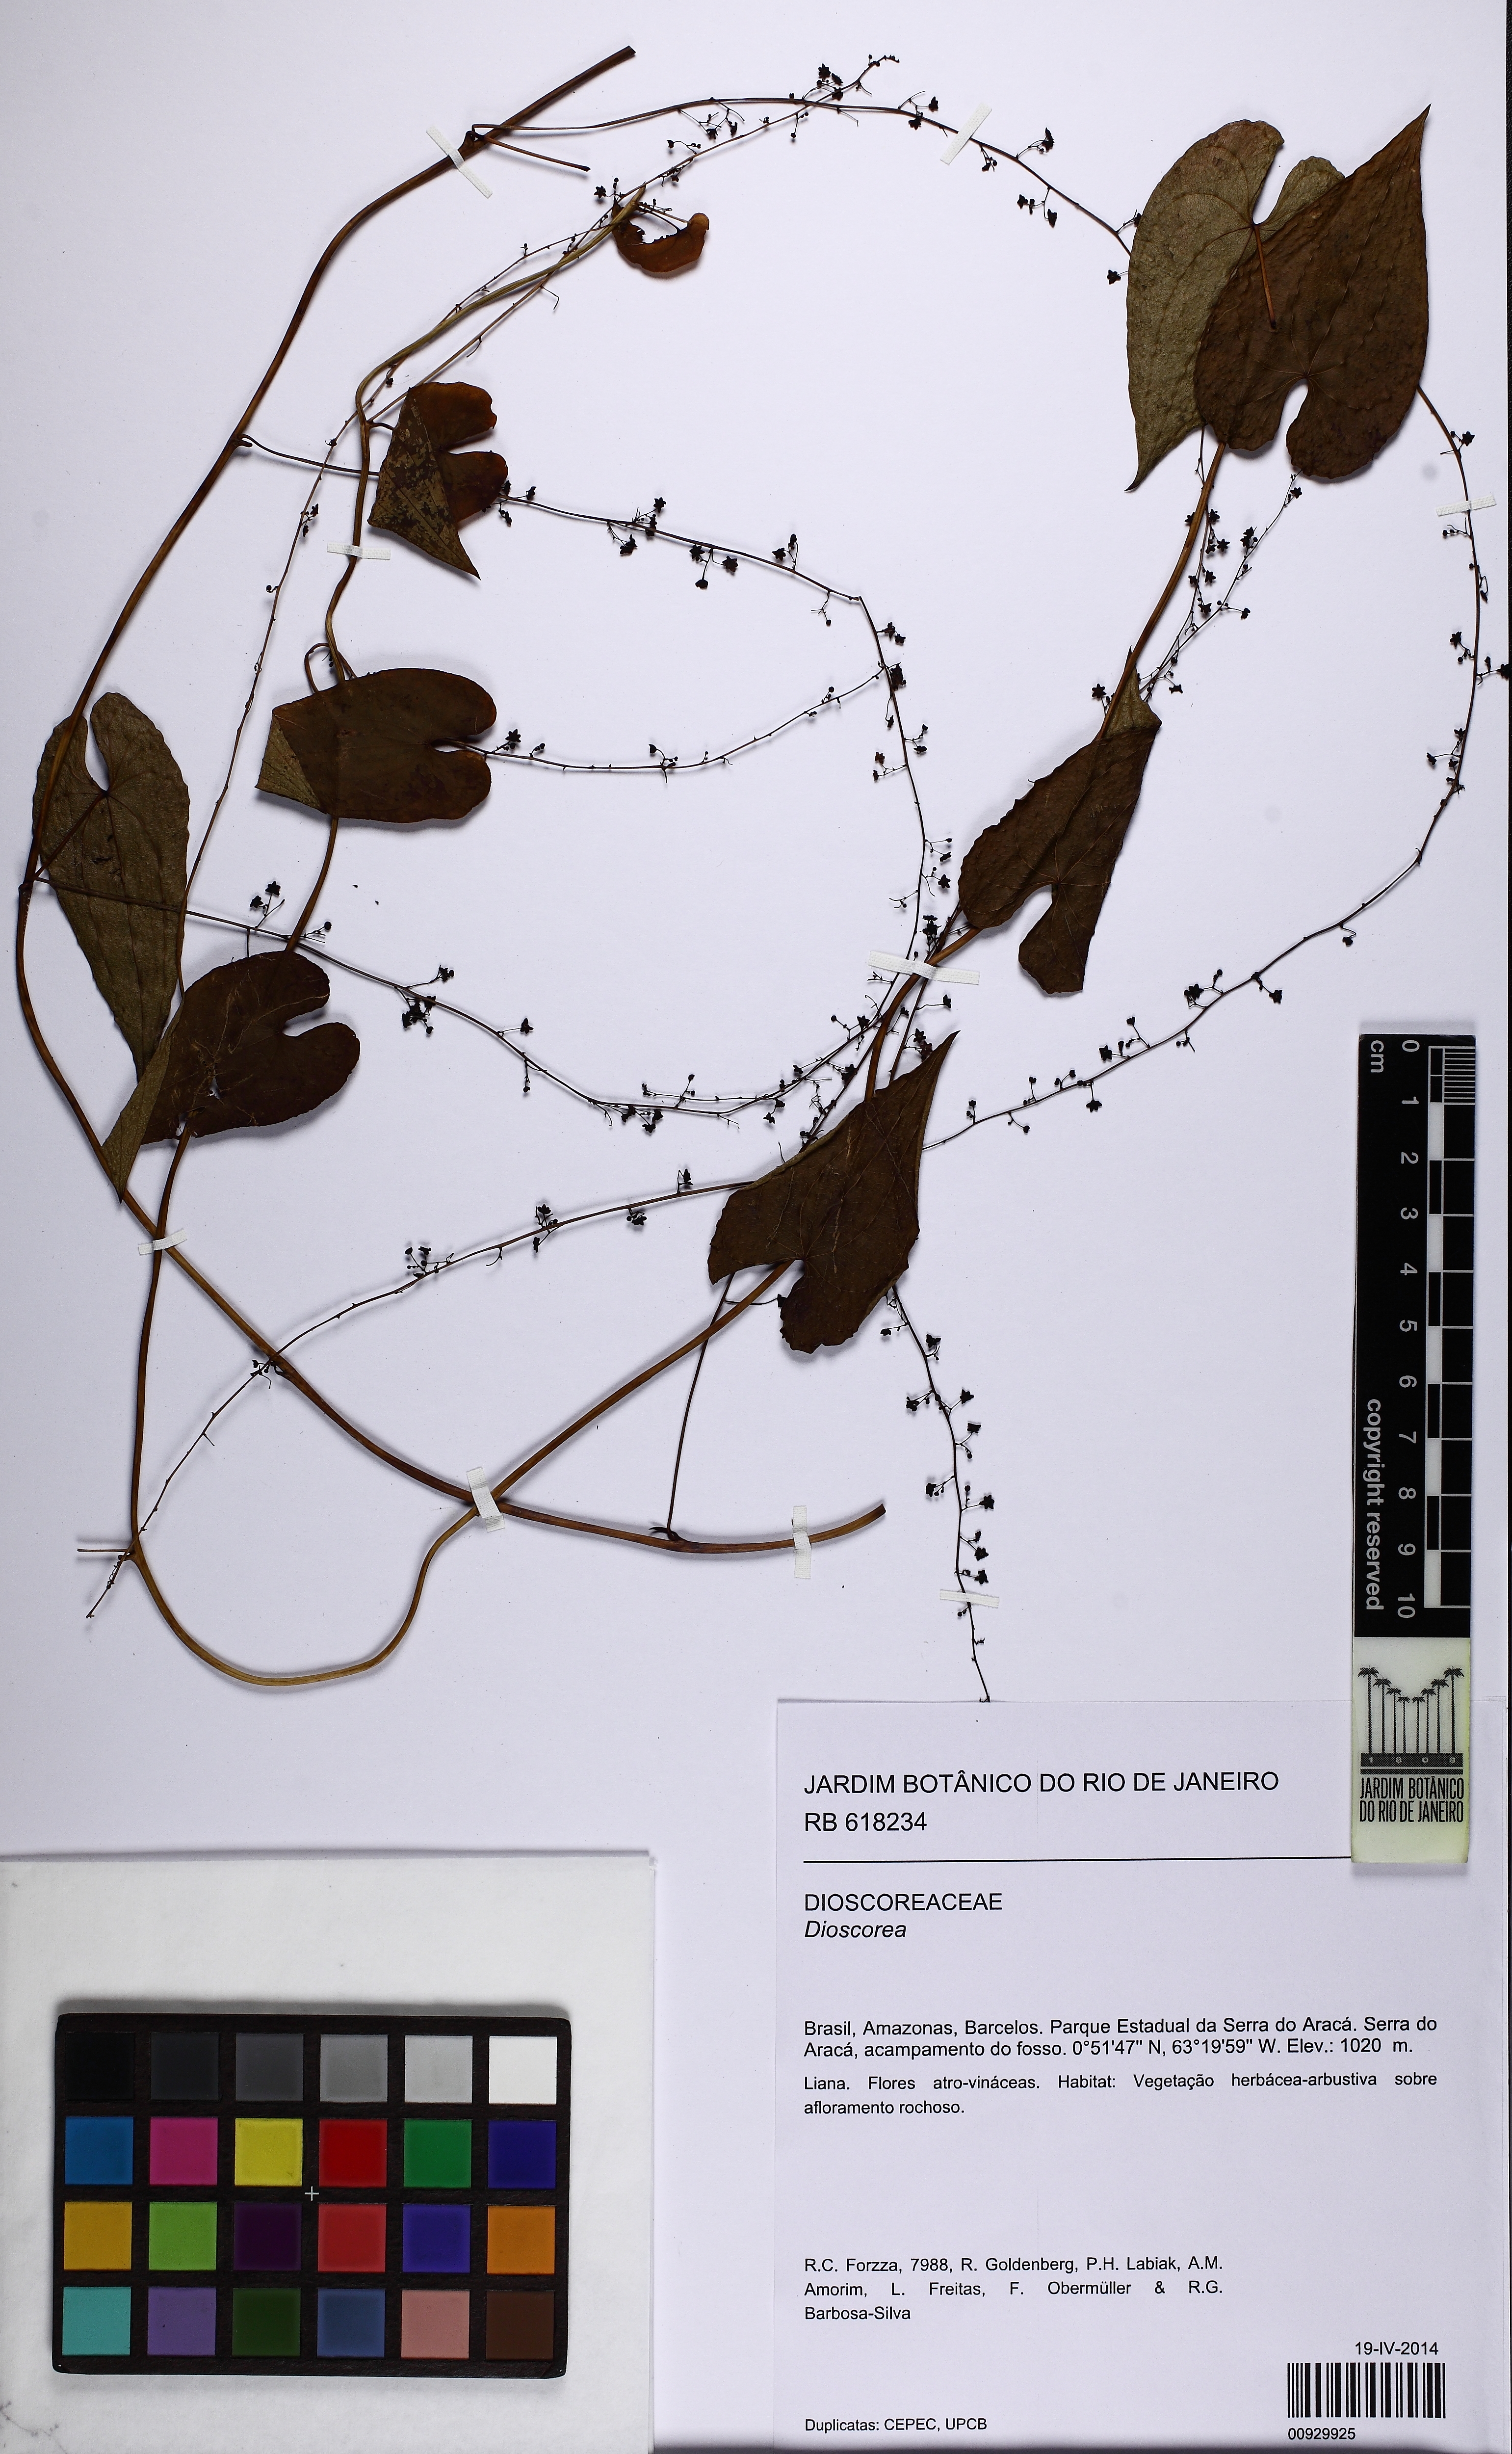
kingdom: Plantae
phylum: Tracheophyta
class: Liliopsida
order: Dioscoreales
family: Dioscoreaceae
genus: Dioscorea
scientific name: Dioscorea
